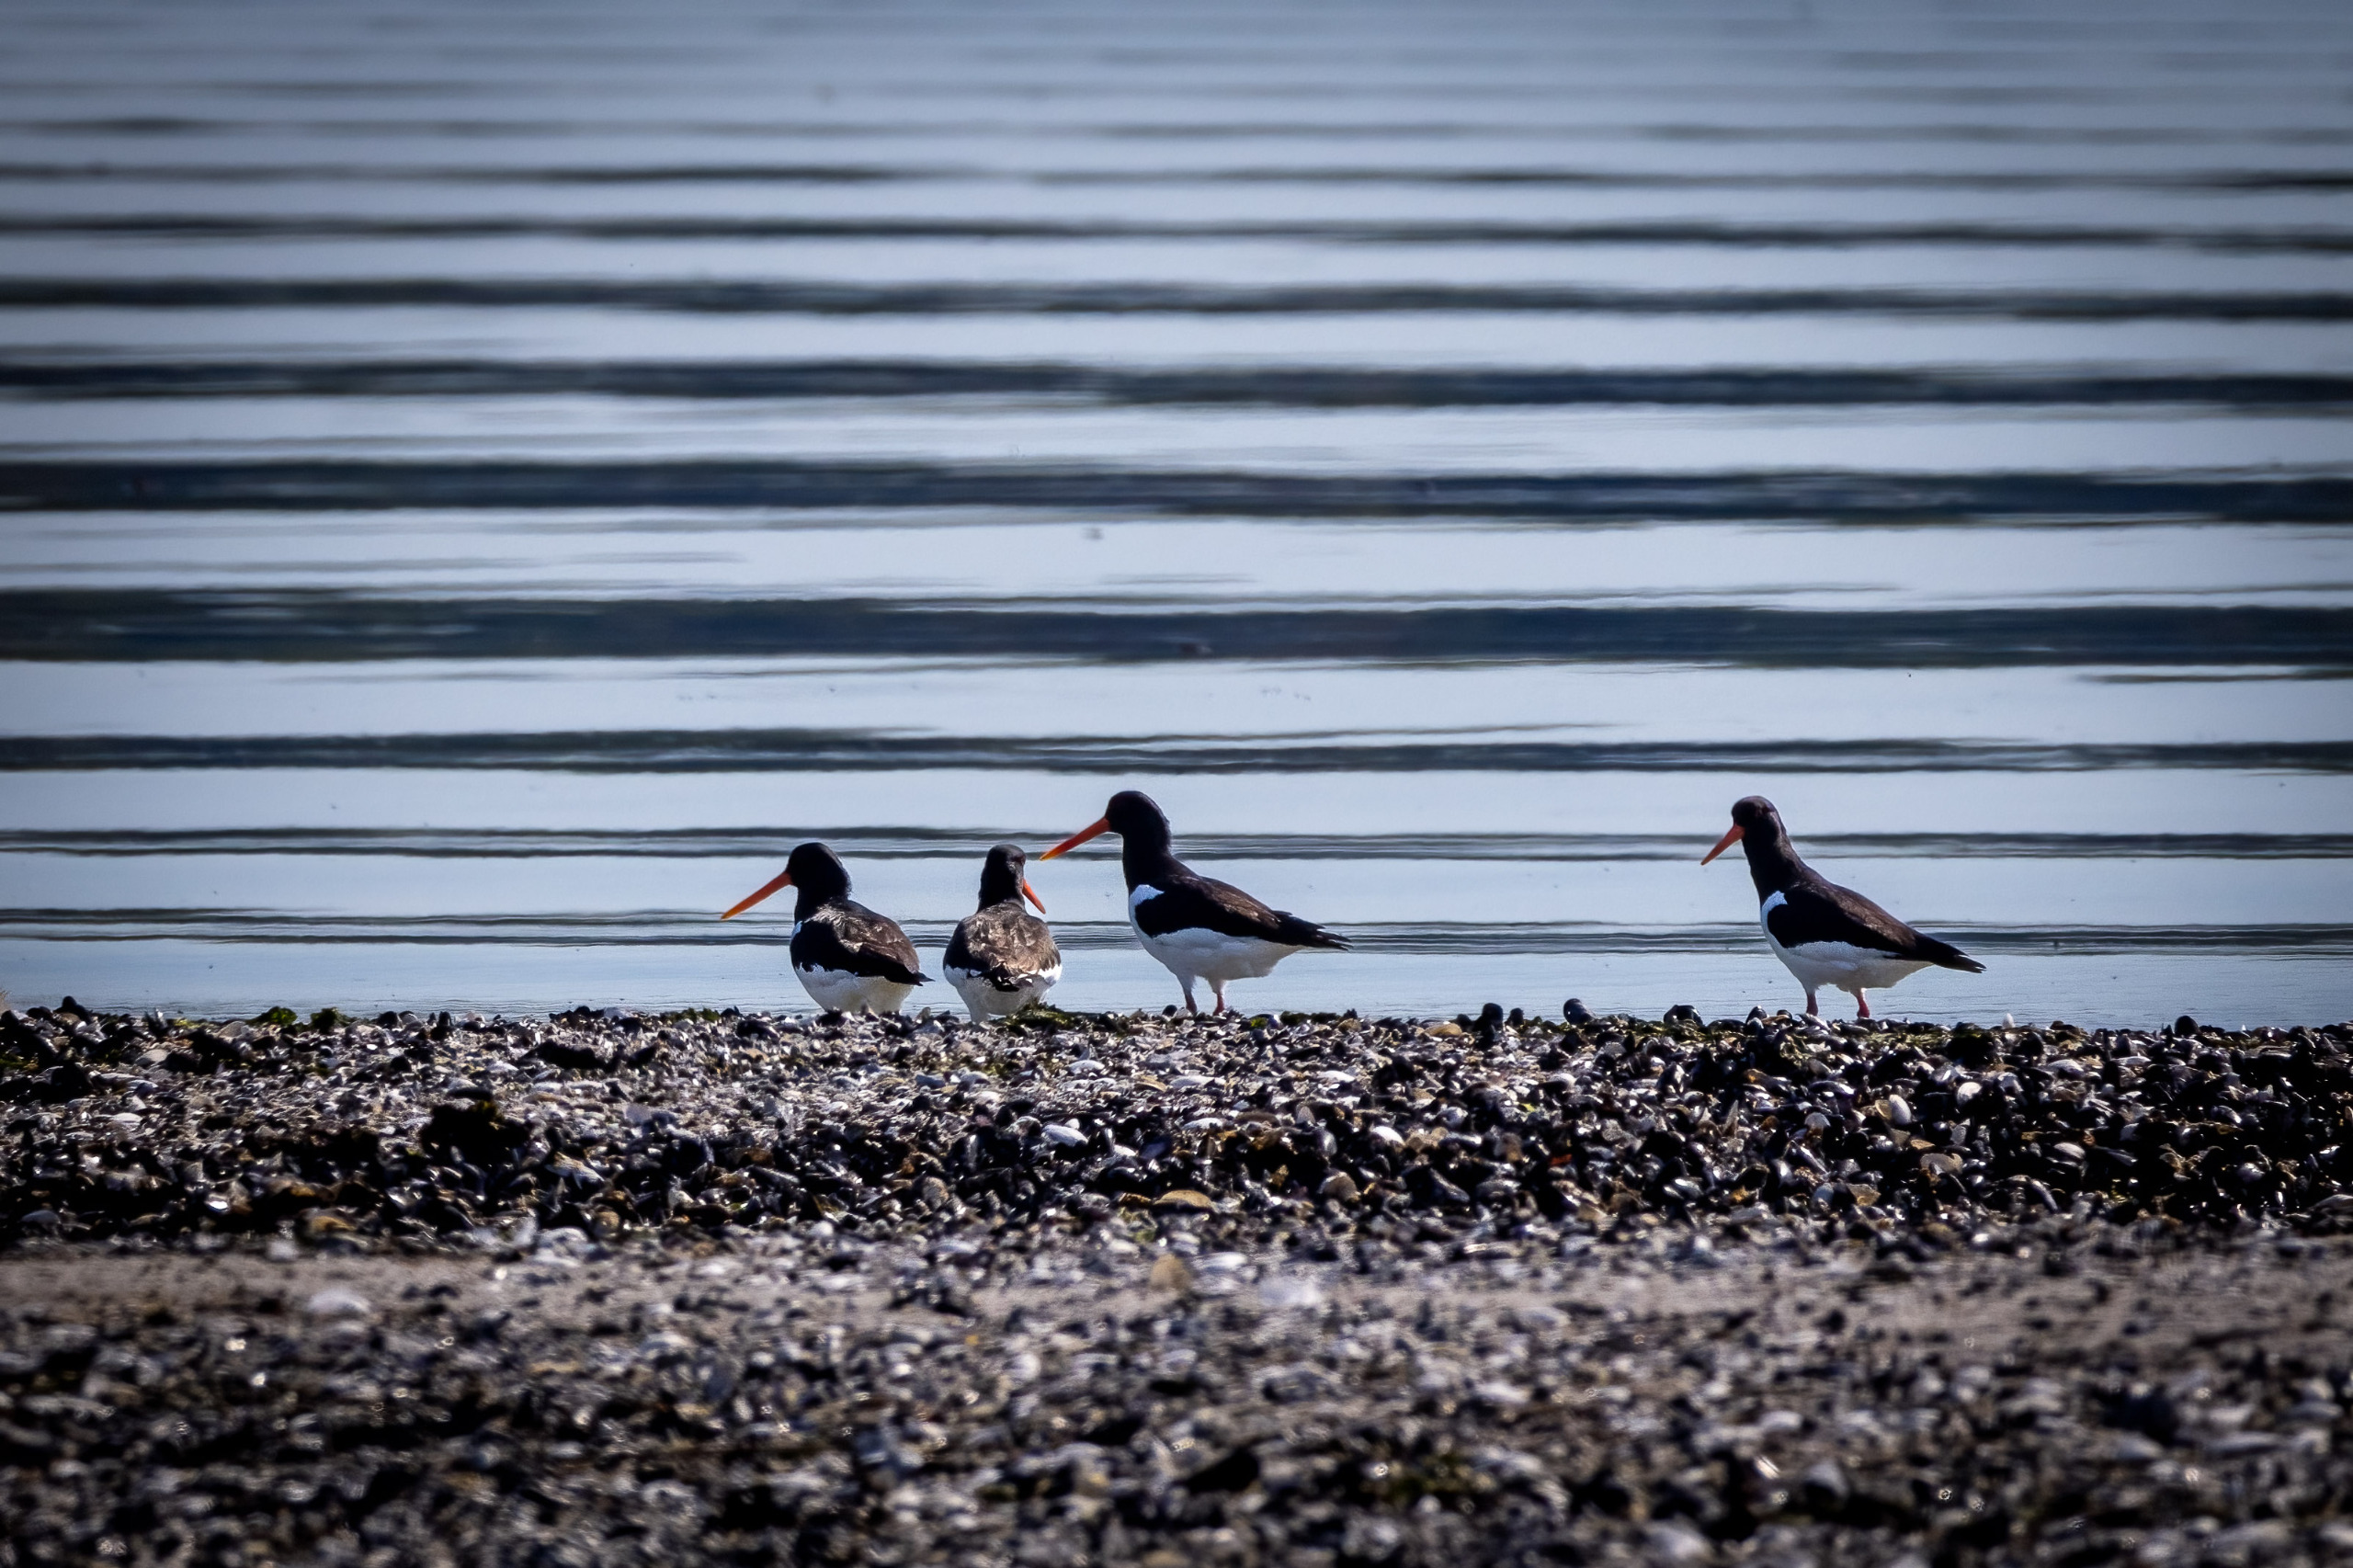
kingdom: Animalia
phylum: Chordata
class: Aves
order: Charadriiformes
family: Haematopodidae
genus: Haematopus
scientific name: Haematopus ostralegus
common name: Strandskade
